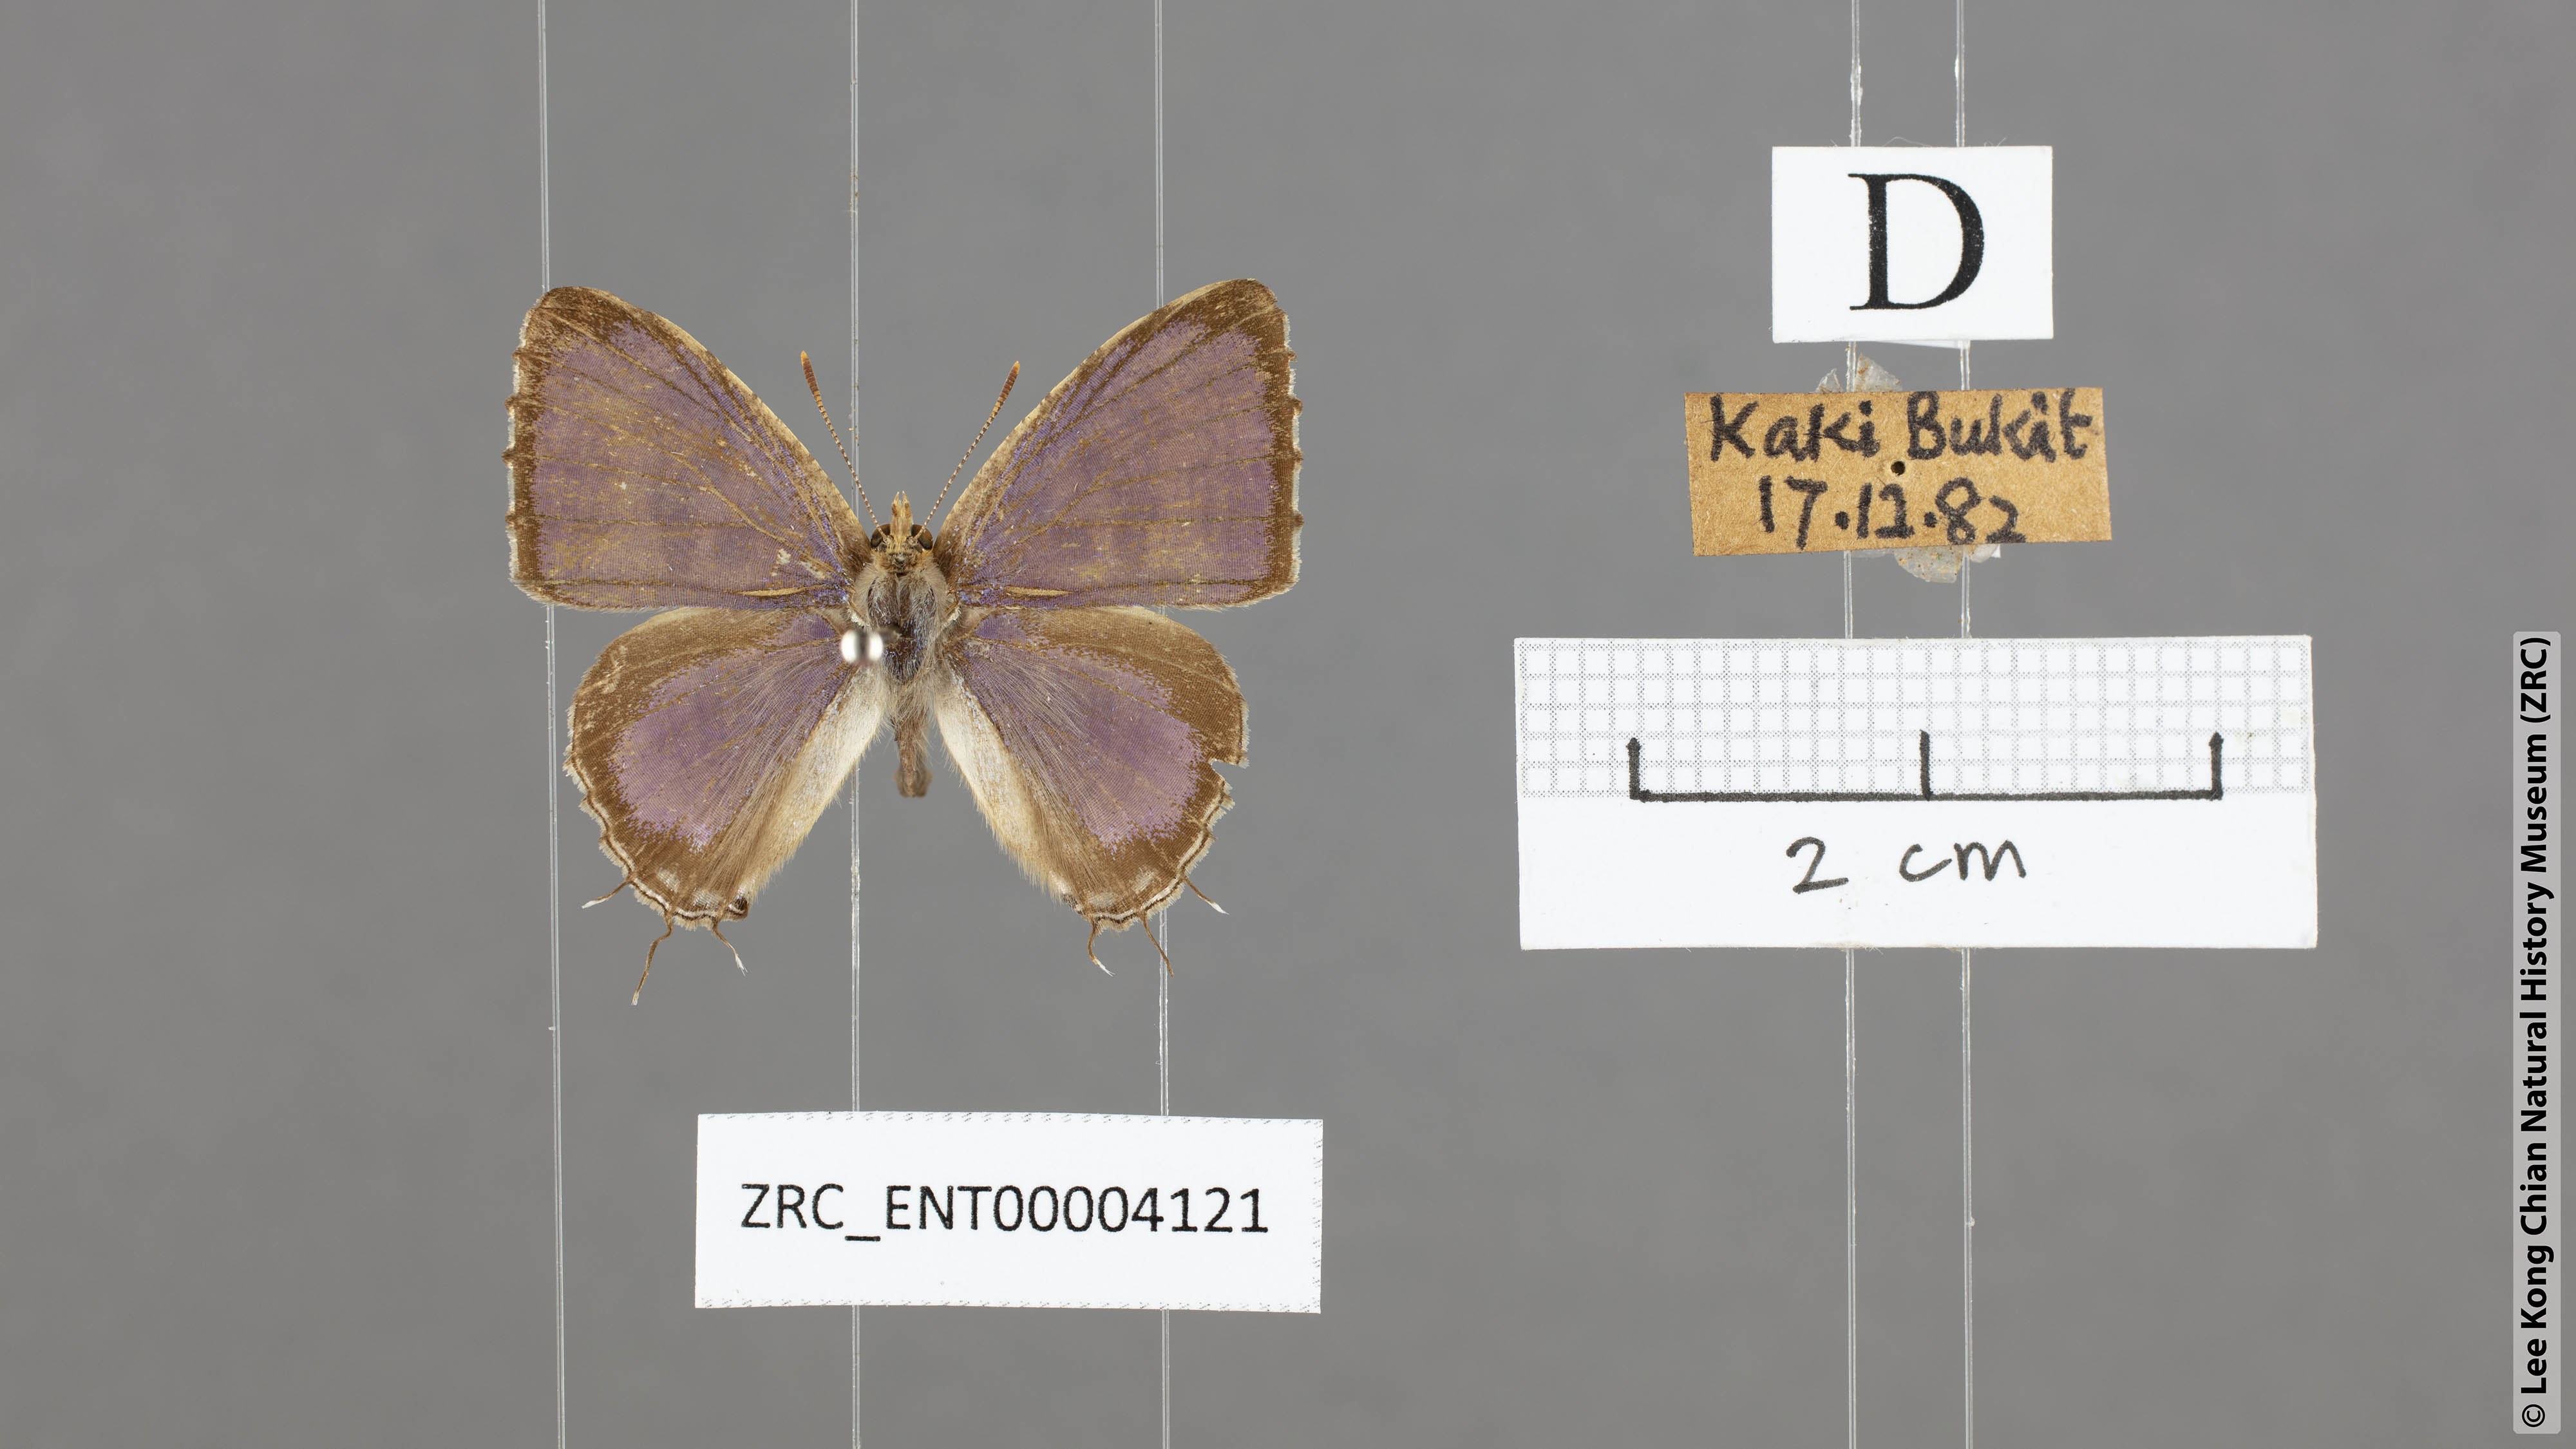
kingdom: Animalia
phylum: Arthropoda
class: Insecta
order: Lepidoptera
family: Lycaenidae
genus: Catapaecilma
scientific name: Catapaecilma major
